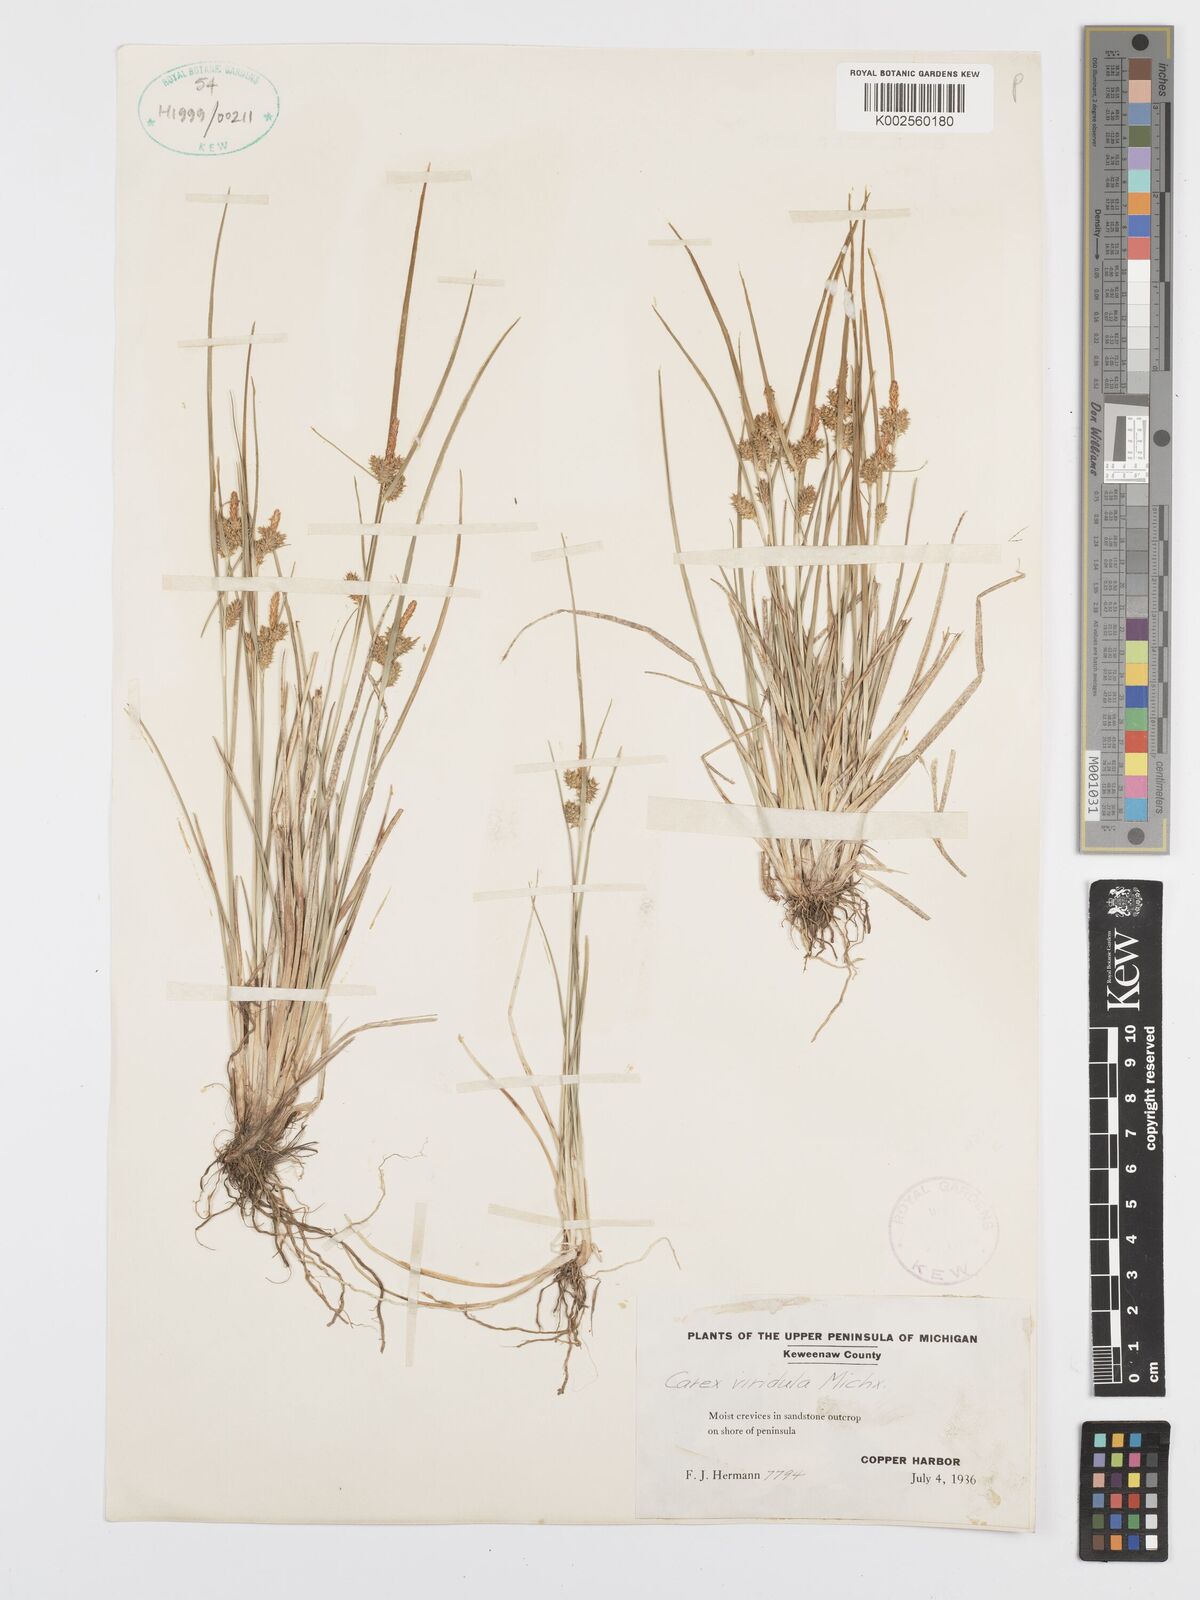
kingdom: Plantae
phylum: Tracheophyta
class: Liliopsida
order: Poales
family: Cyperaceae
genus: Carex
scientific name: Carex oederi
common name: Common & small-fruited yellow-sedge
